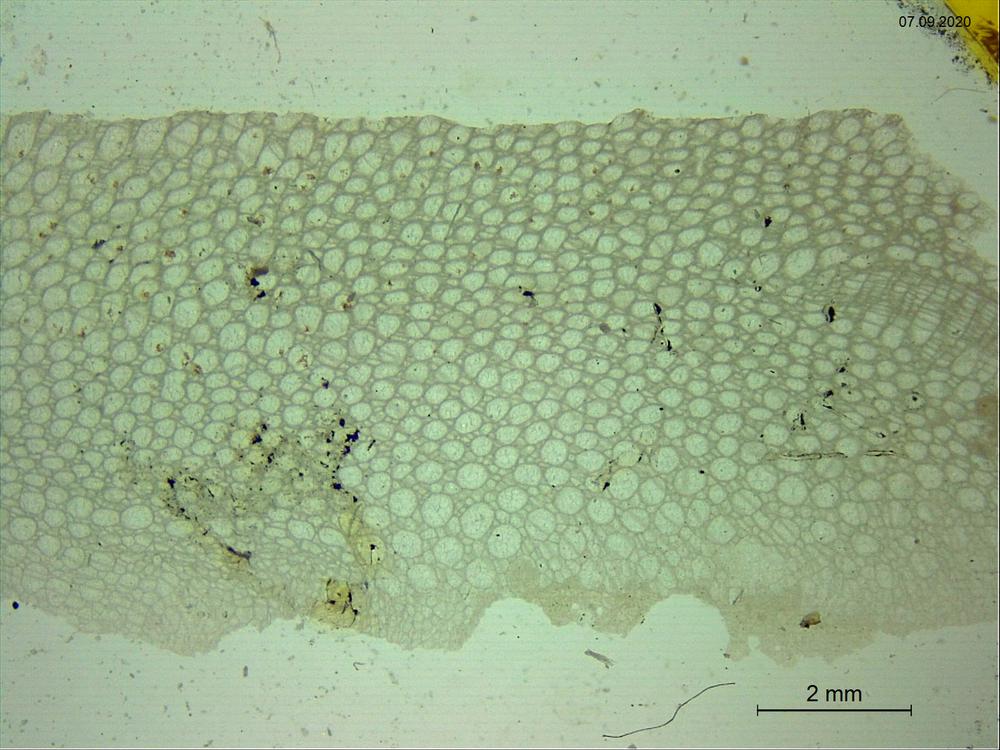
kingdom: Animalia
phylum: Cnidaria
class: Anthozoa
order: Heliolitina
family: Heliolitidae
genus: Heliolites
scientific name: Heliolites
